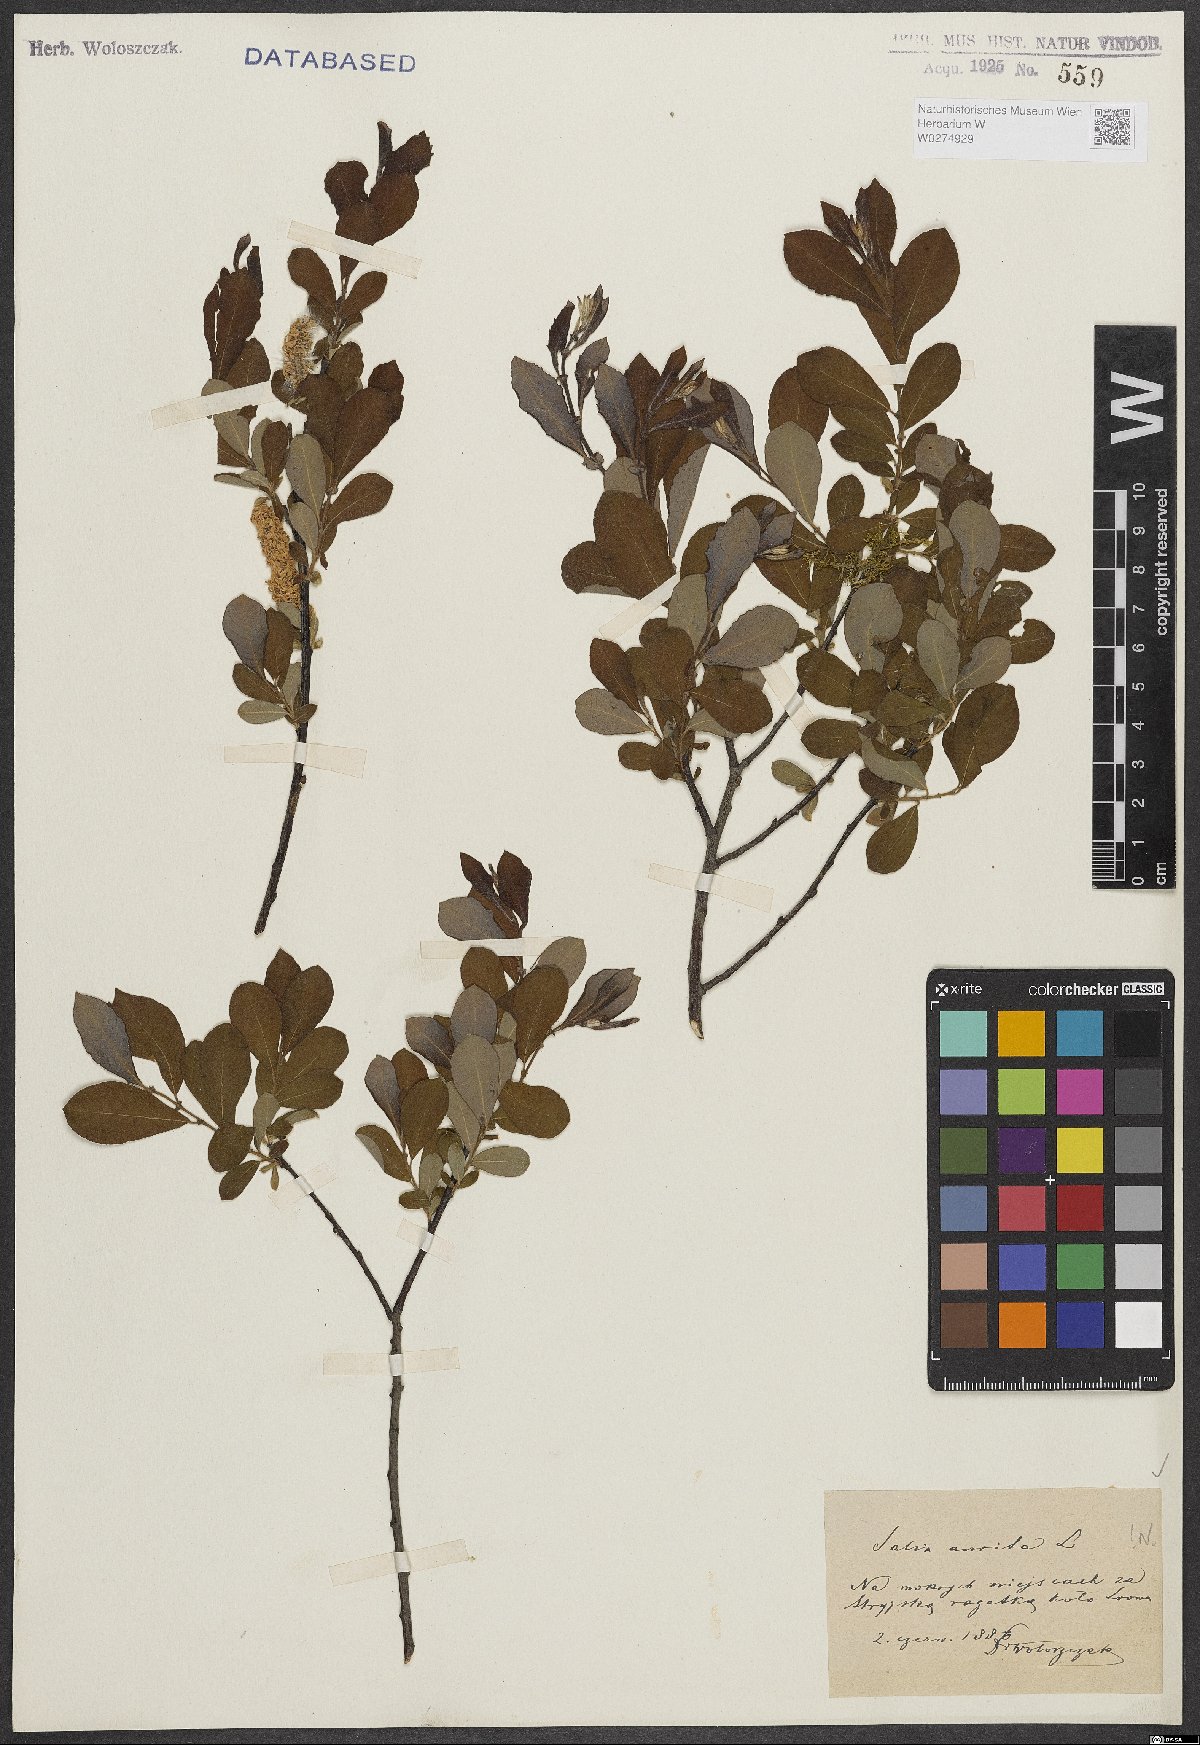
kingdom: Plantae
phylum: Tracheophyta
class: Magnoliopsida
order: Malpighiales
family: Salicaceae
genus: Salix
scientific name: Salix aurita
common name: Eared willow
